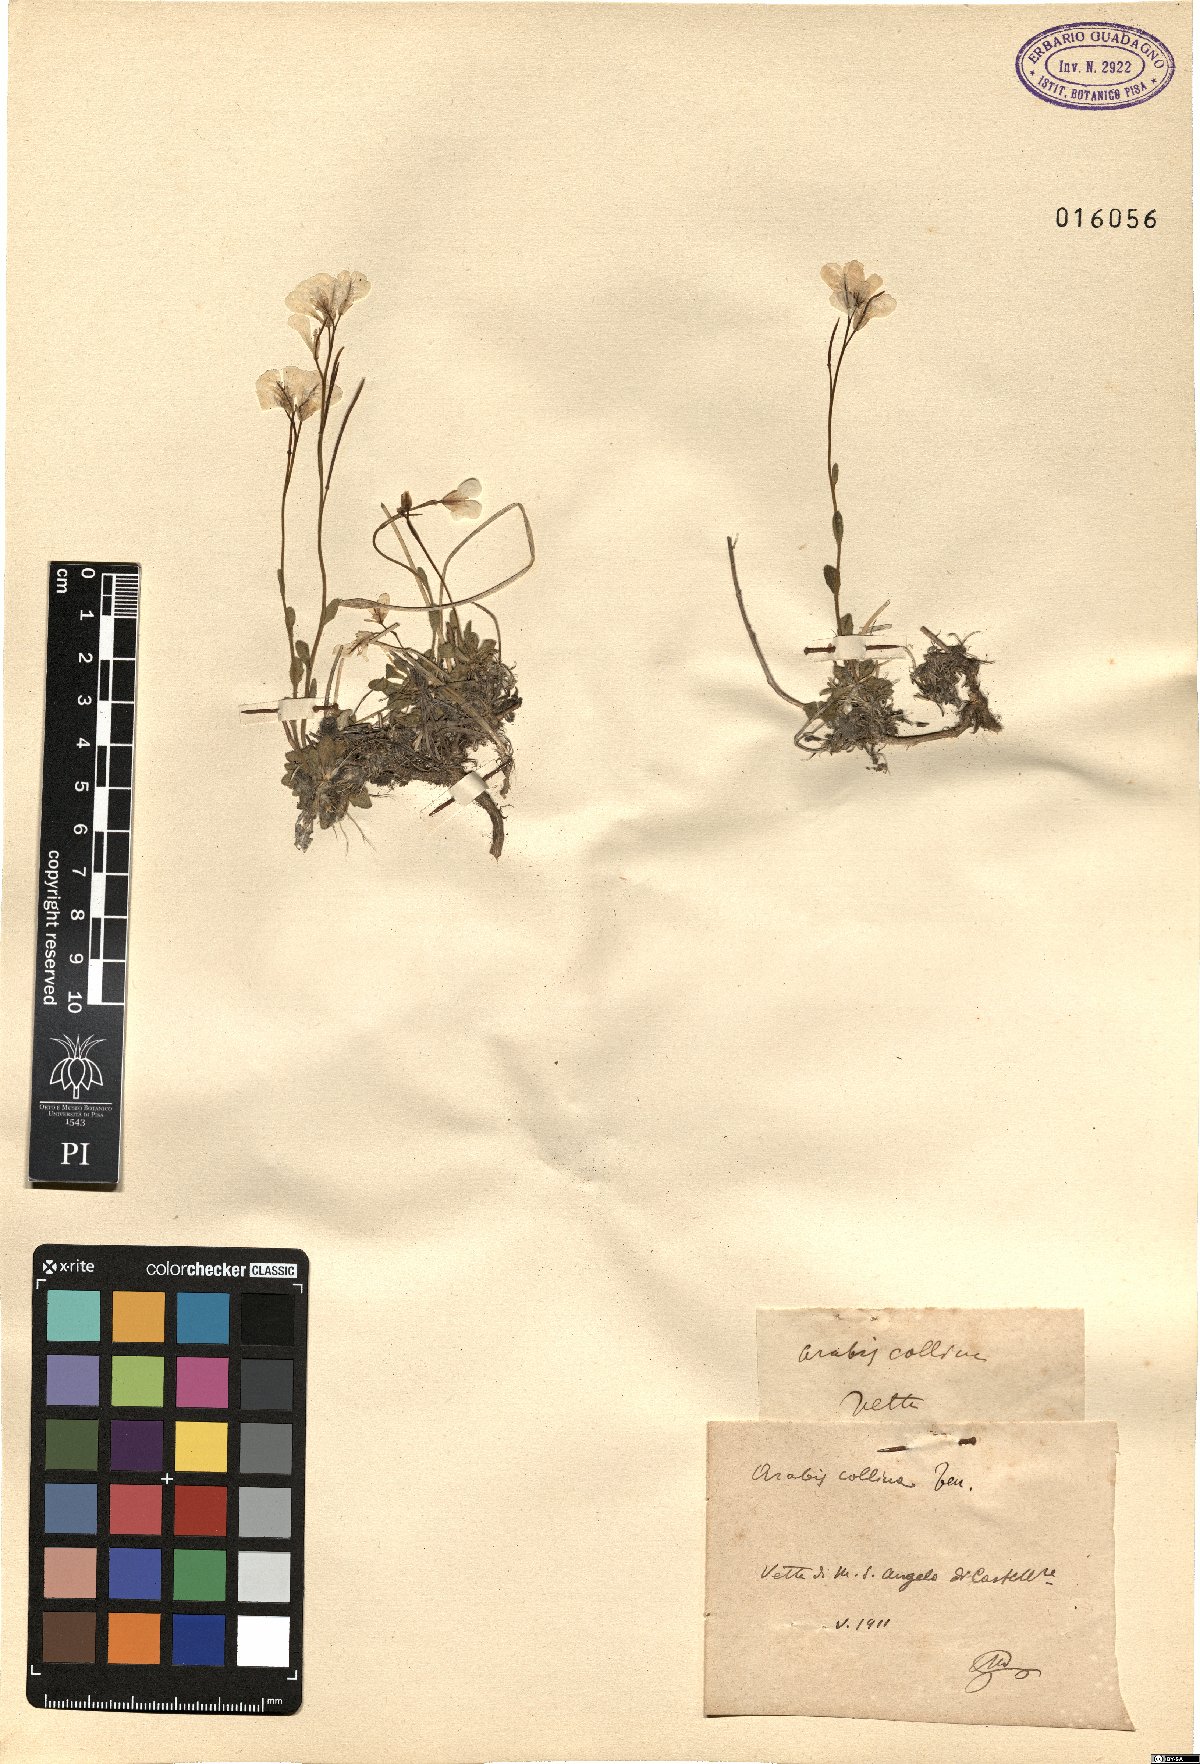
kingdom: Plantae
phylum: Tracheophyta
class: Magnoliopsida
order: Brassicales
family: Brassicaceae
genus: Arabis
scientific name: Arabis collina
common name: Rosy cress
